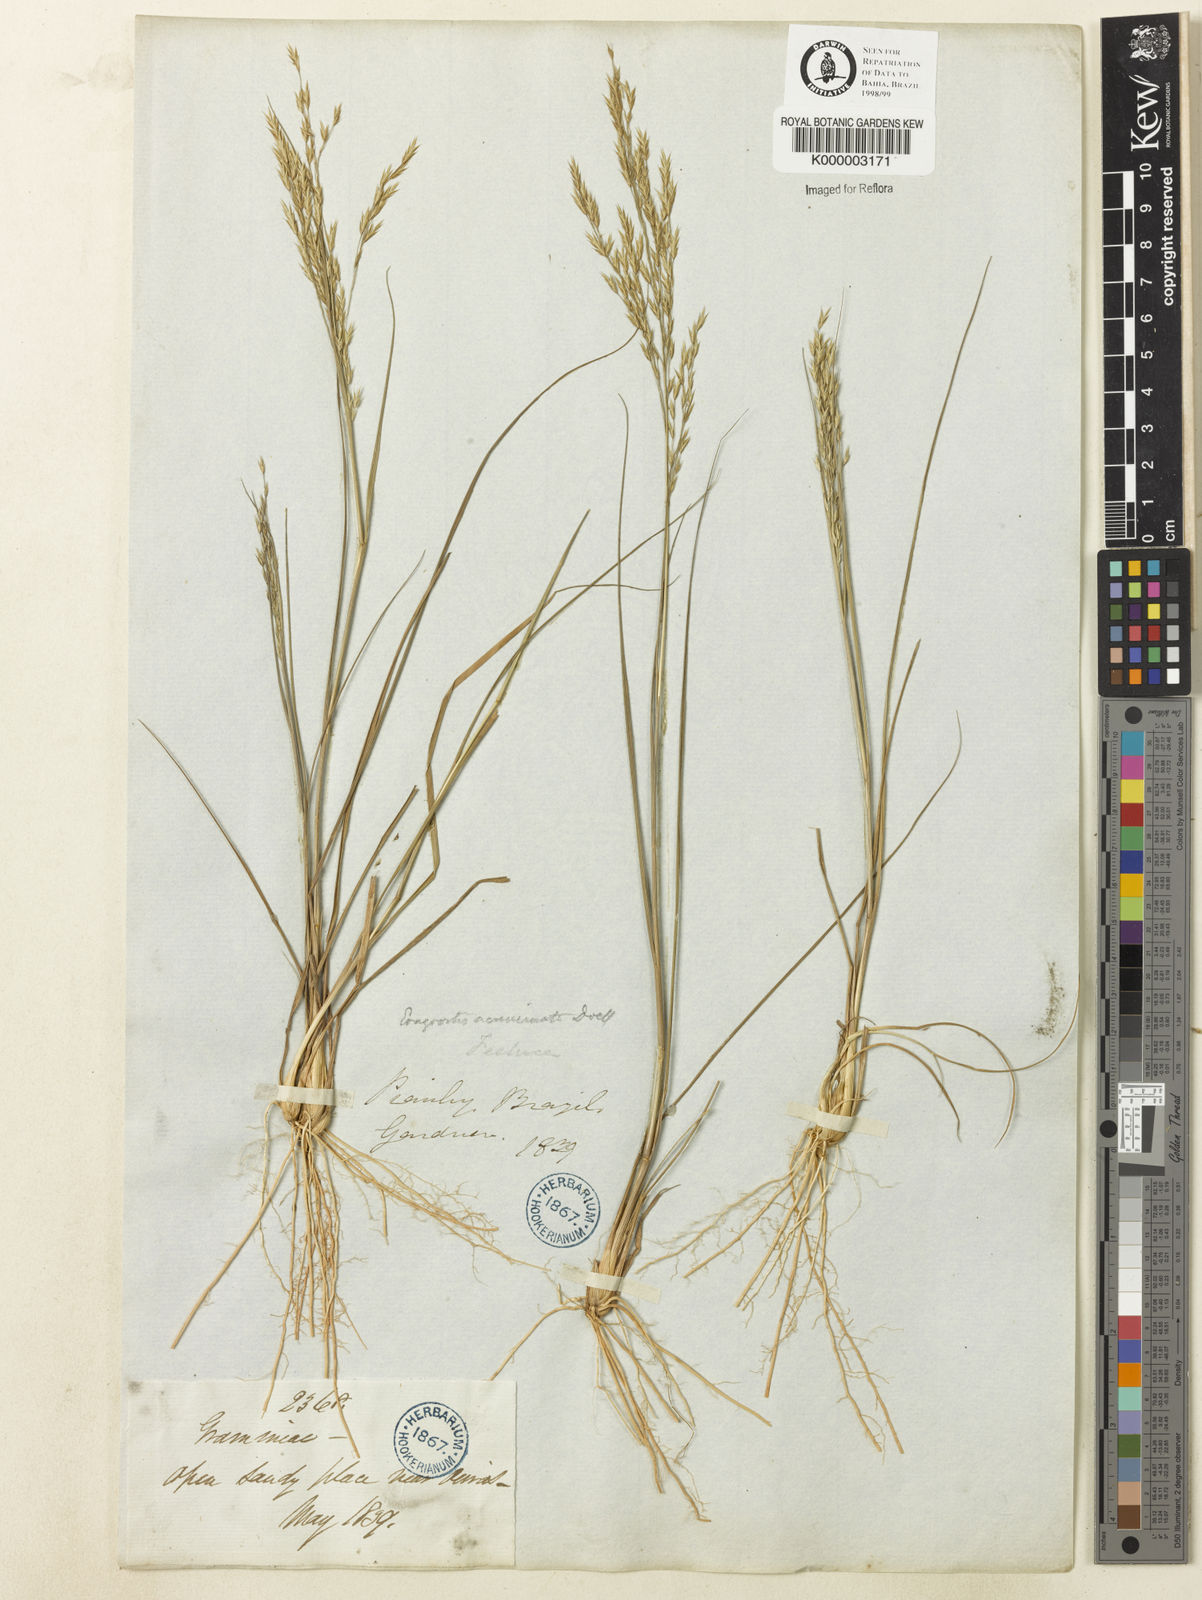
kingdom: Plantae
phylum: Tracheophyta
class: Liliopsida
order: Poales
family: Poaceae
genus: Steirachne
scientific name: Steirachne diandra
